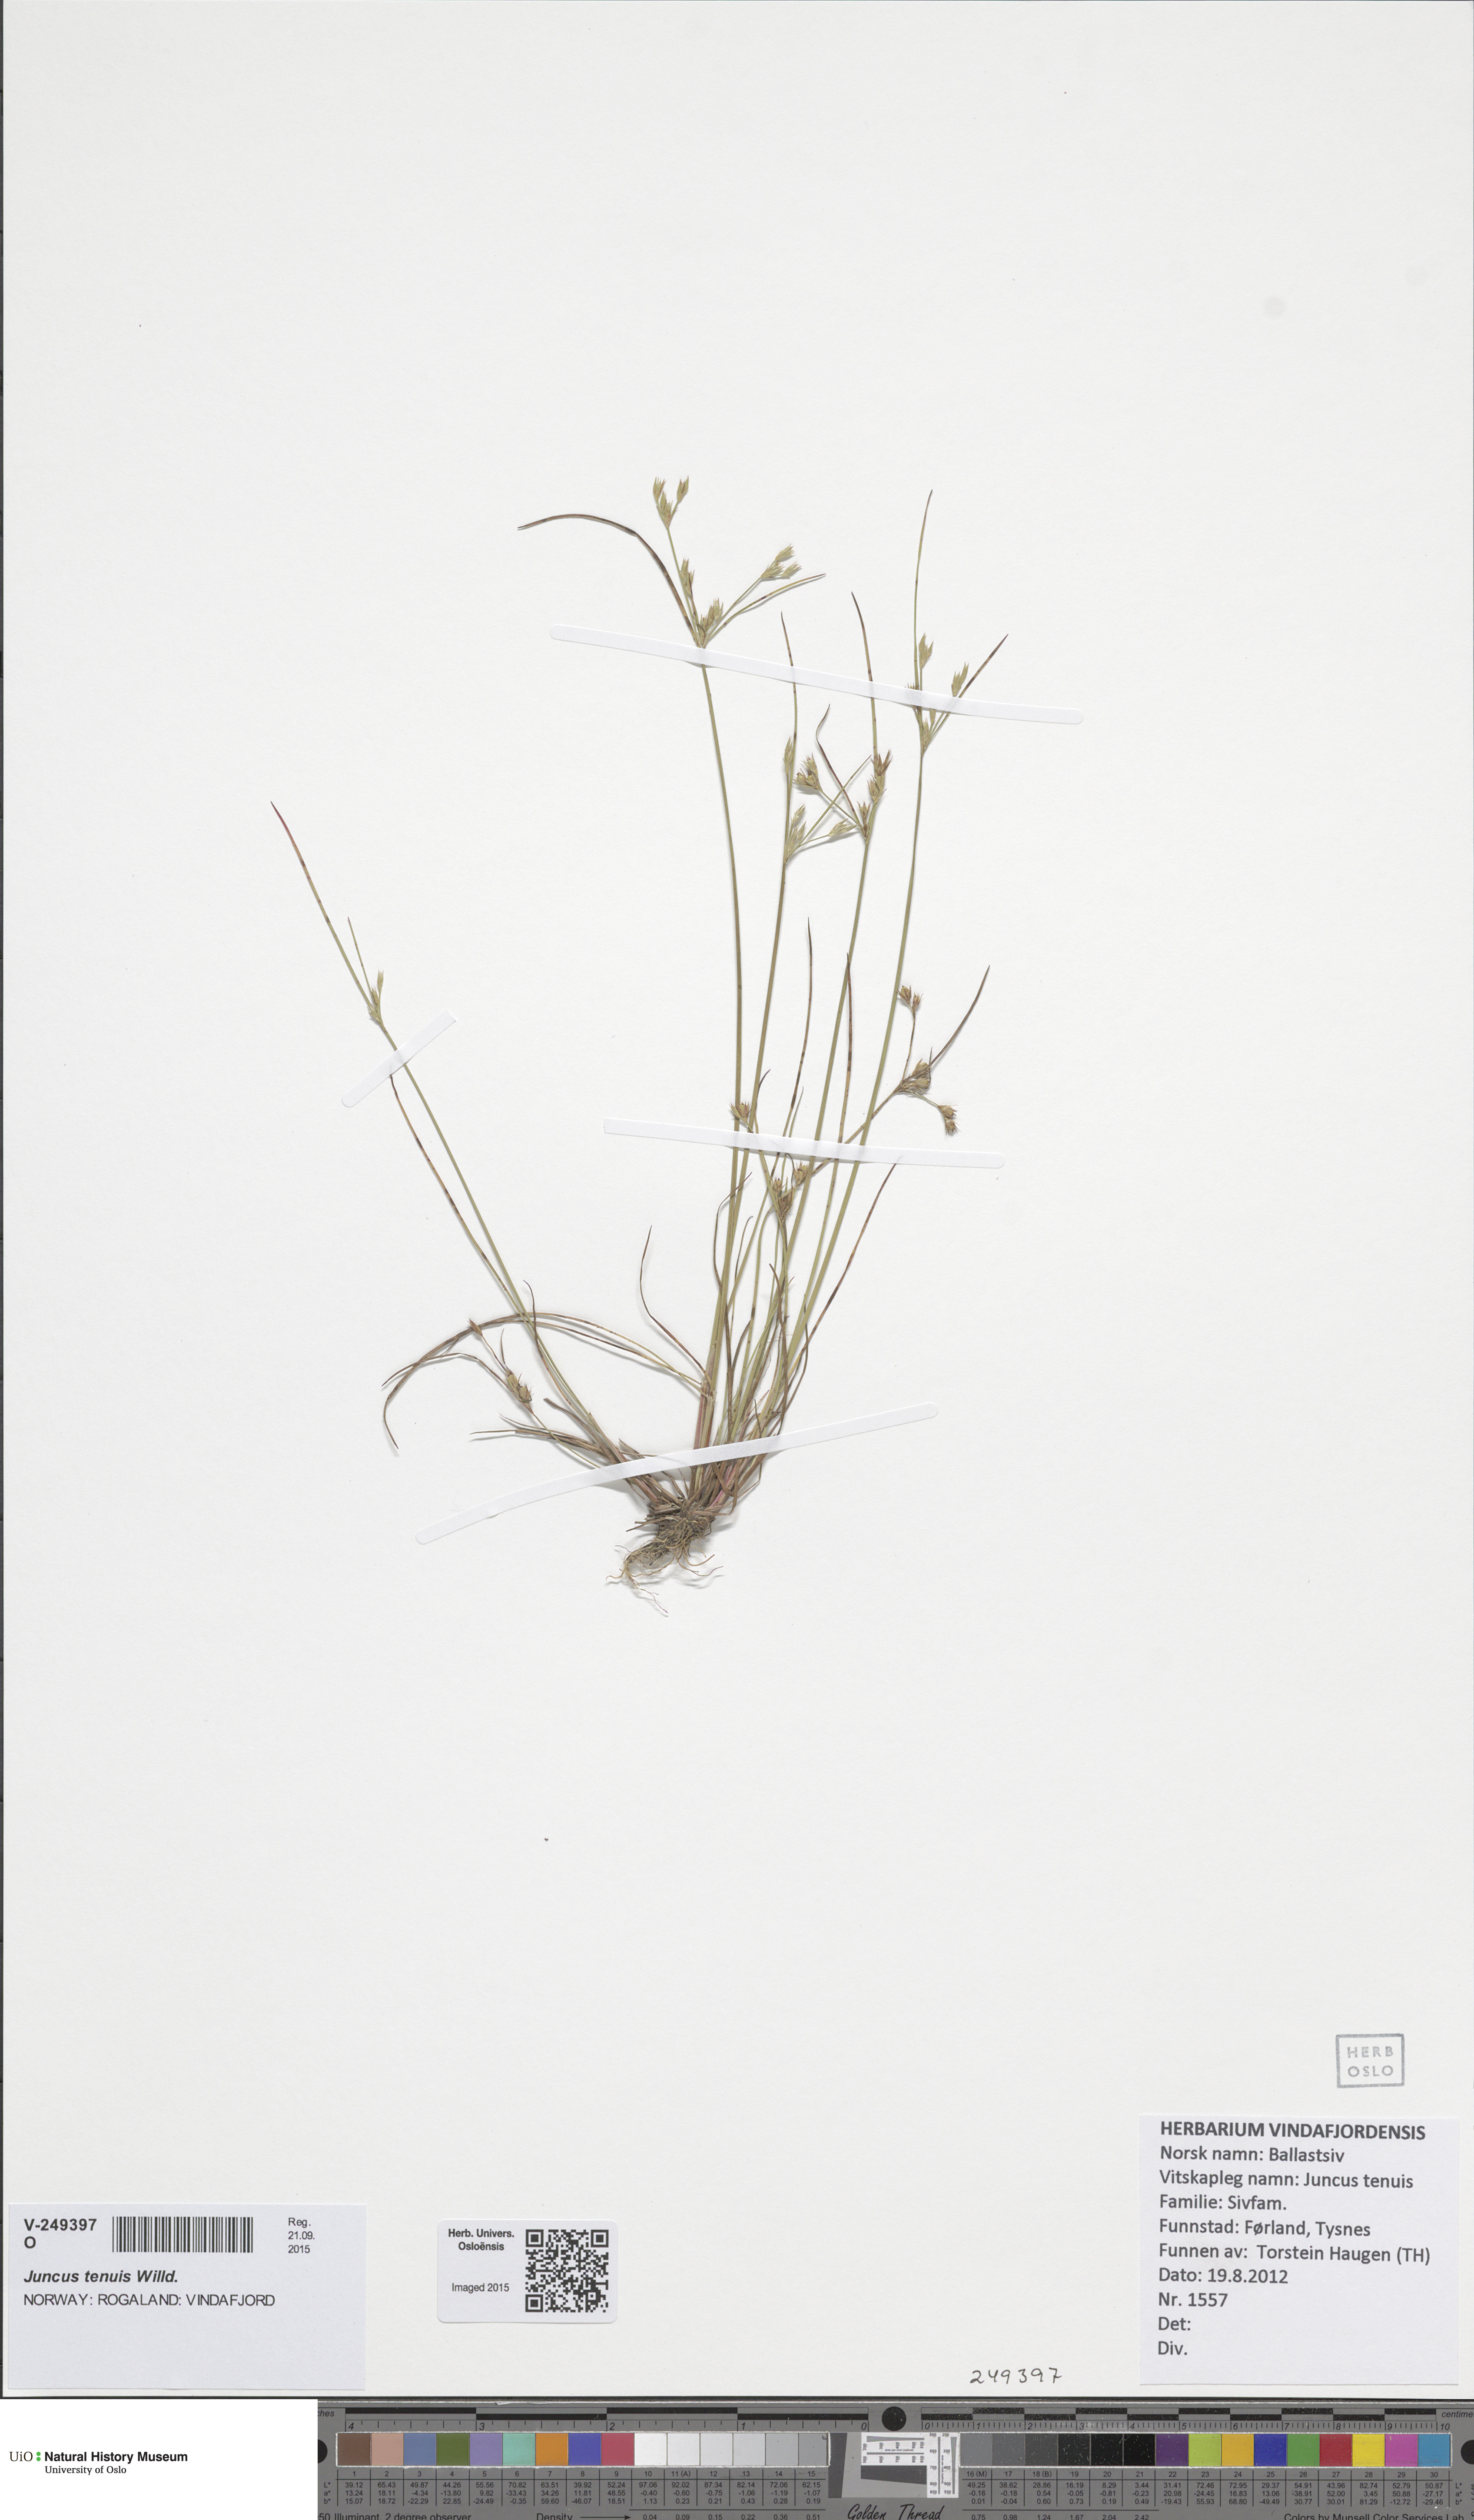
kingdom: Plantae
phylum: Tracheophyta
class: Liliopsida
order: Poales
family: Juncaceae
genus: Juncus
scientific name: Juncus tenuis
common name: Slender rush
